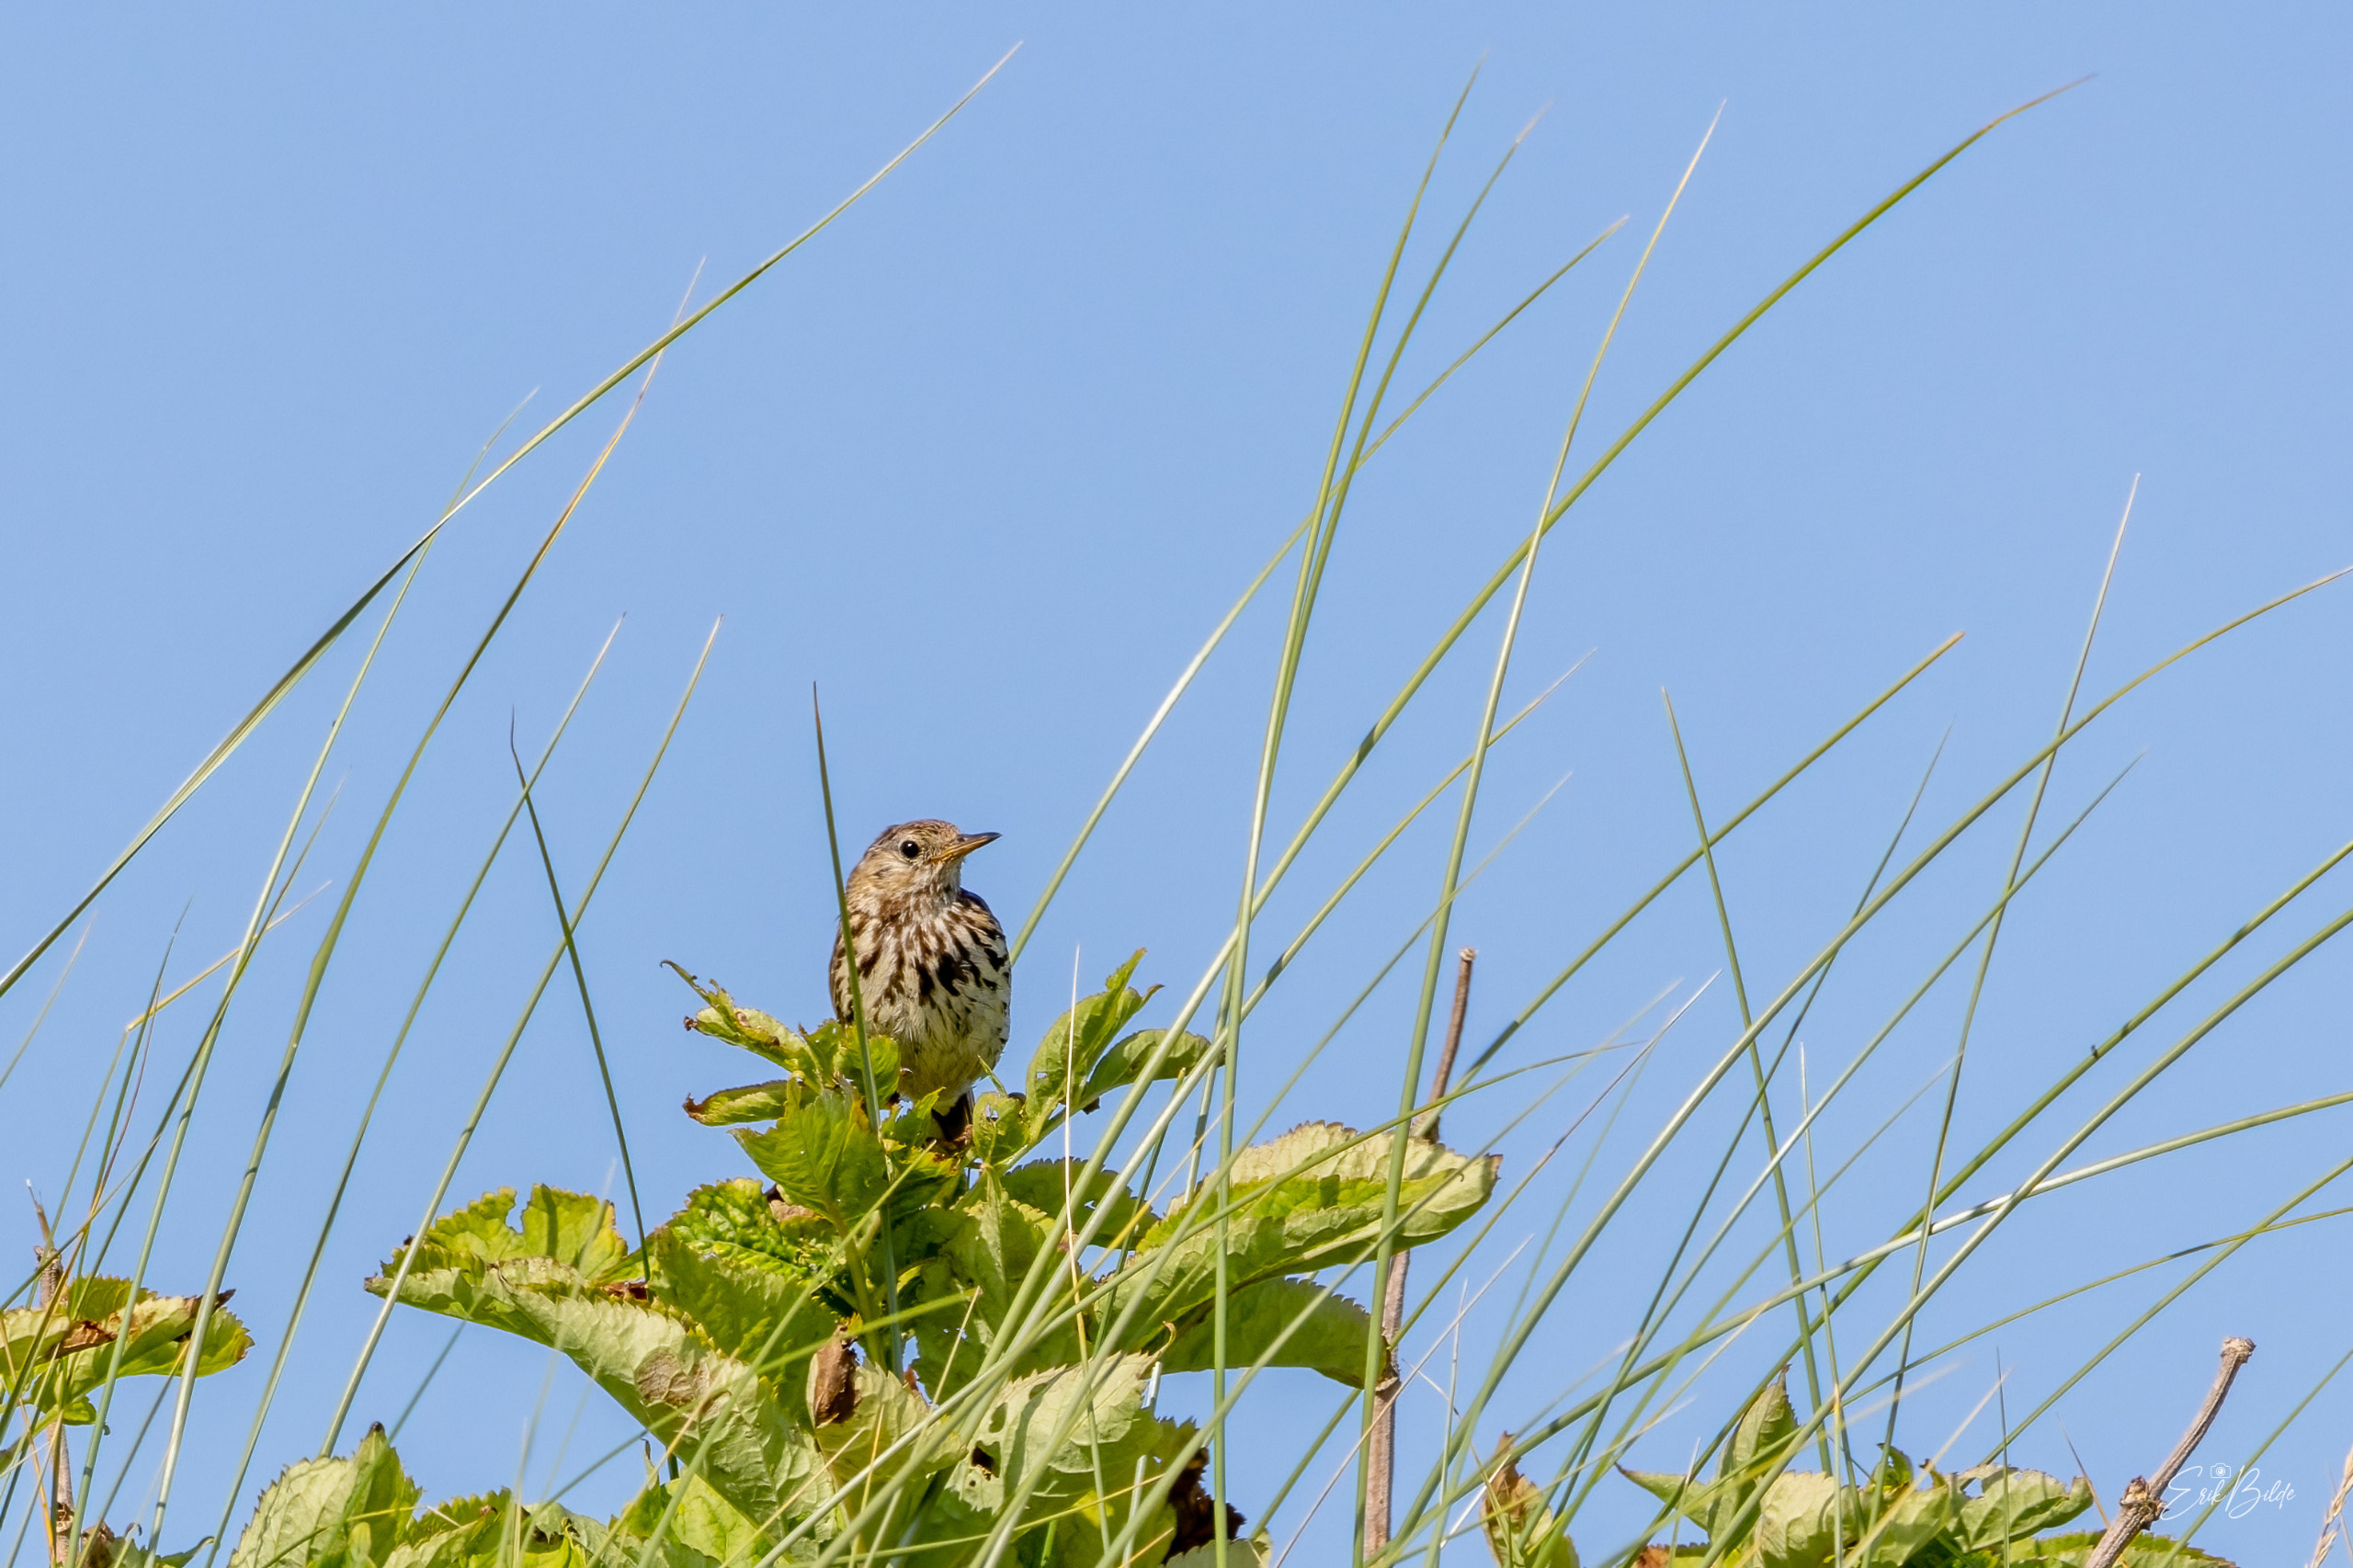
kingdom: Animalia
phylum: Chordata
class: Aves
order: Passeriformes
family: Motacillidae
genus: Anthus
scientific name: Anthus pratensis
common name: Engpiber
